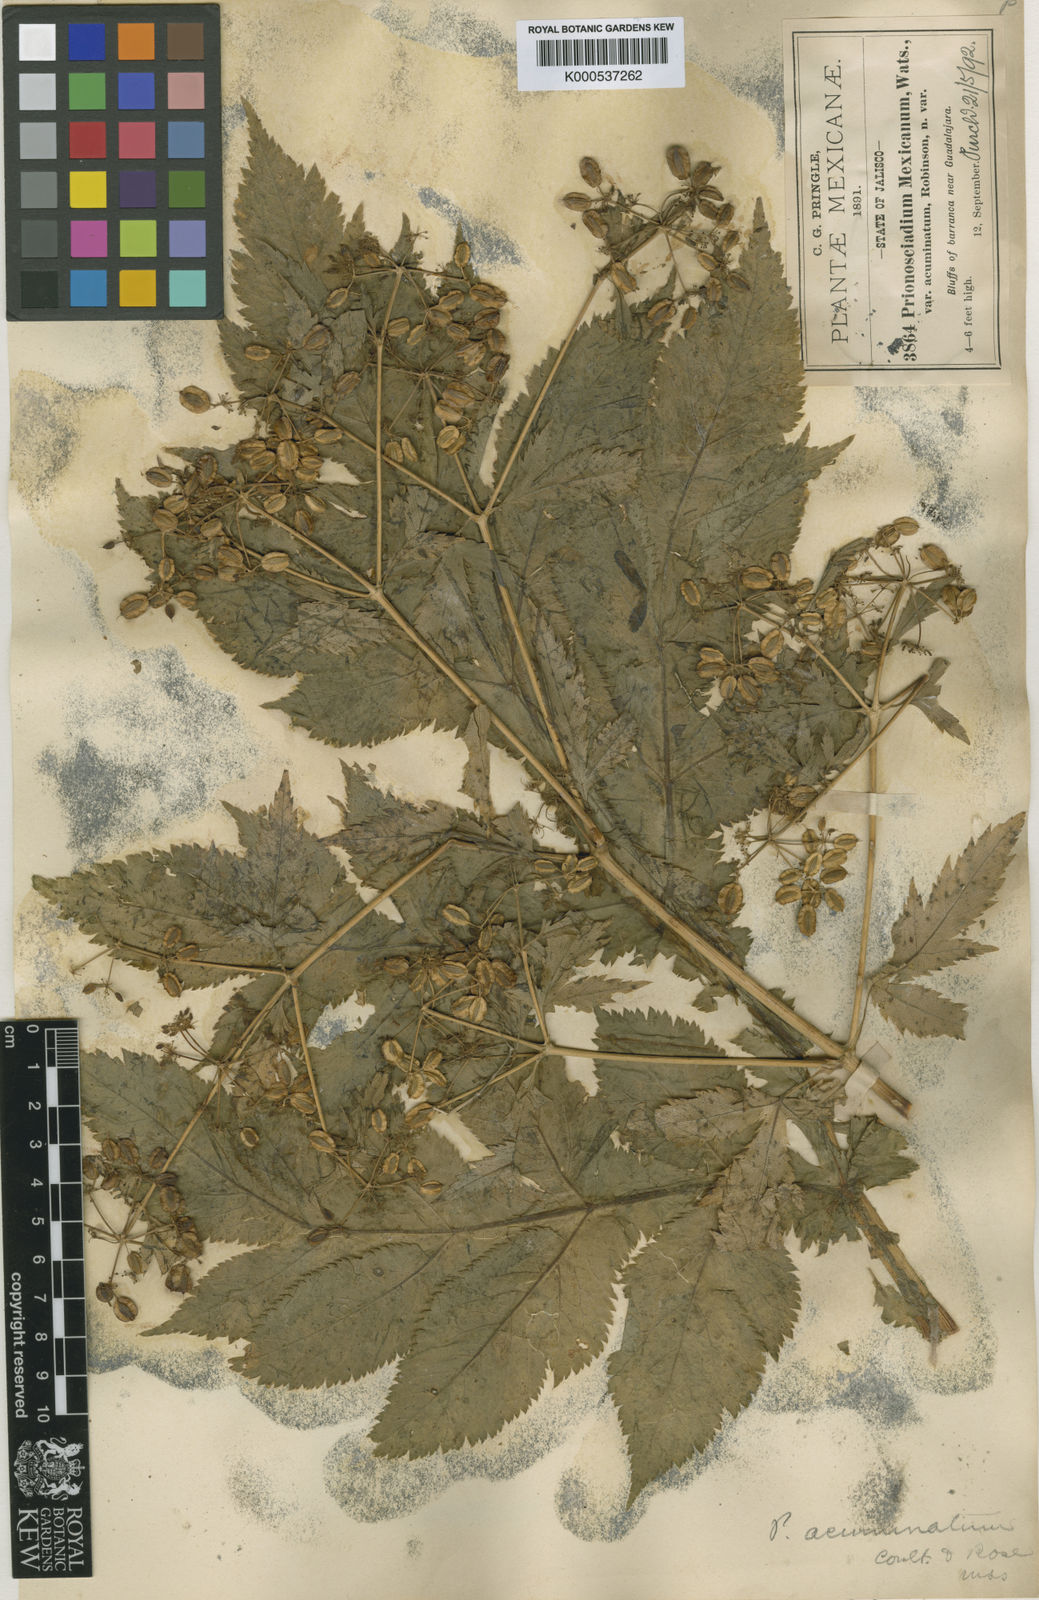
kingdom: Plantae
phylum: Tracheophyta
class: Magnoliopsida
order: Apiales
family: Apiaceae
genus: Prionosciadium
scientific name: Prionosciadium acuminatum
